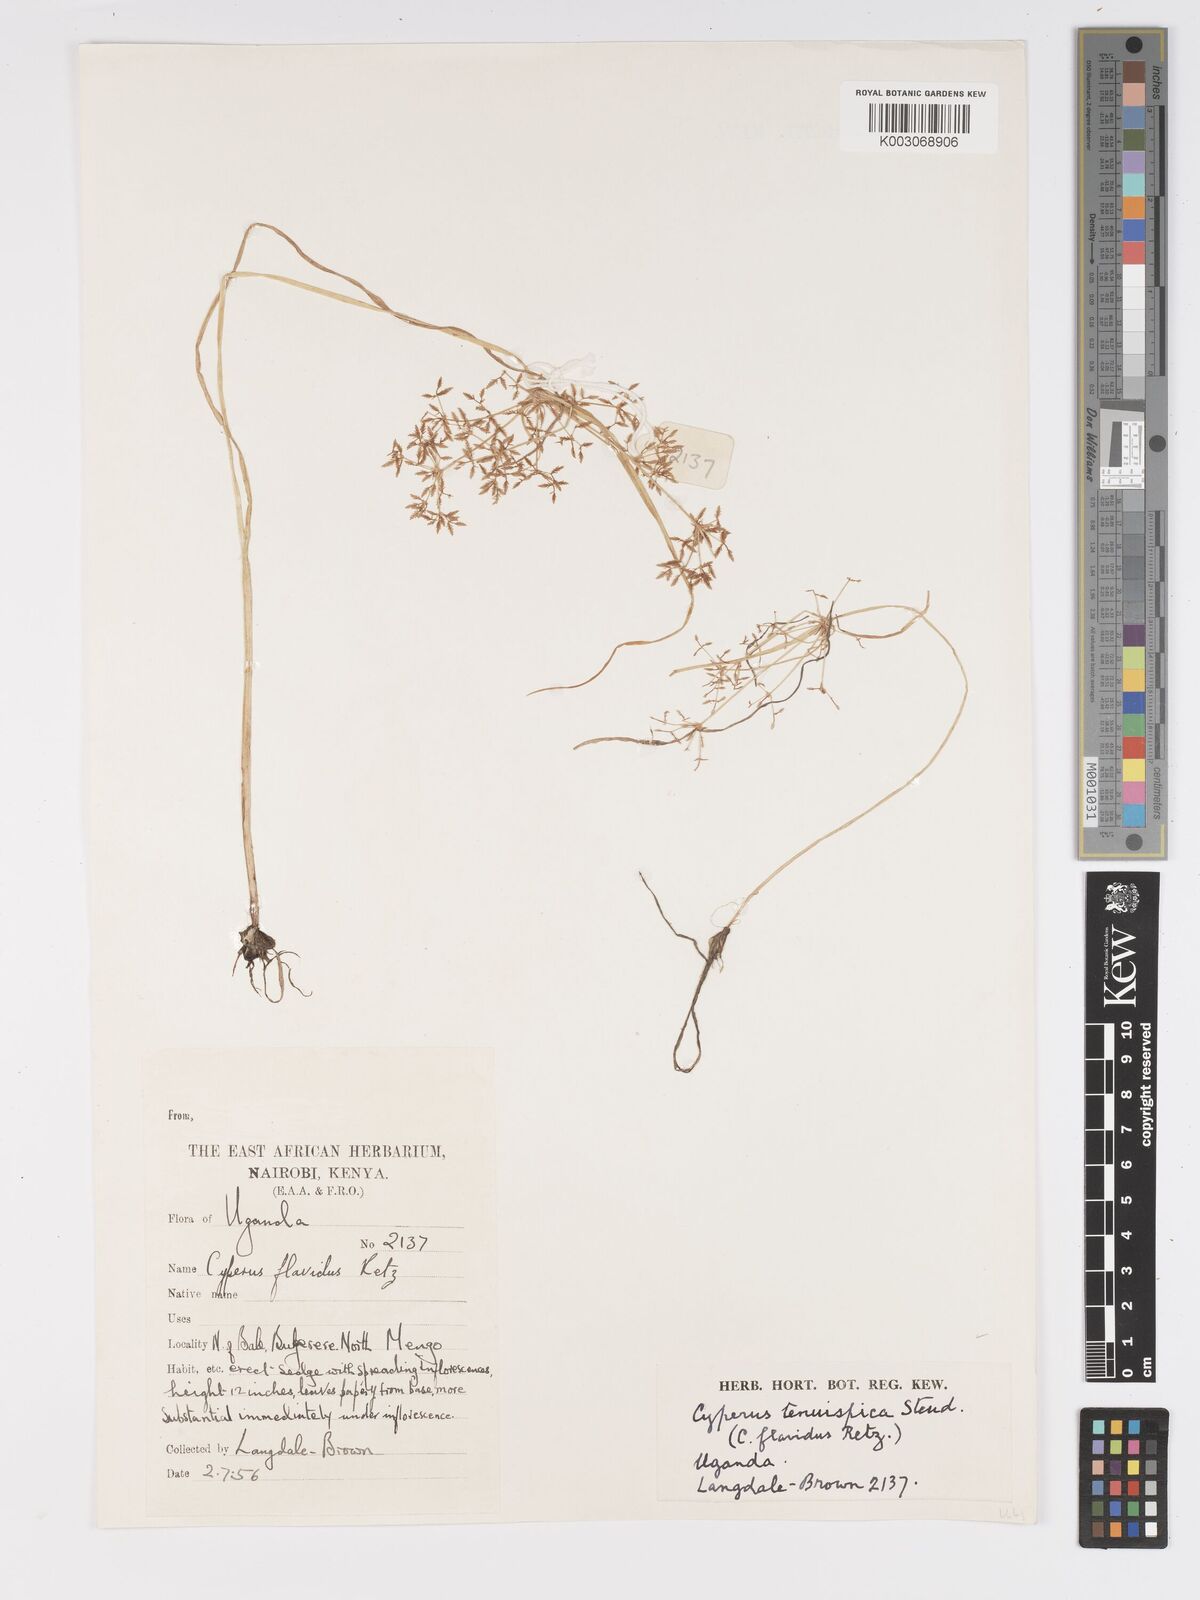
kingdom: Plantae
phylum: Tracheophyta
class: Liliopsida
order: Poales
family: Cyperaceae
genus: Cyperus
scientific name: Cyperus foliaceus
